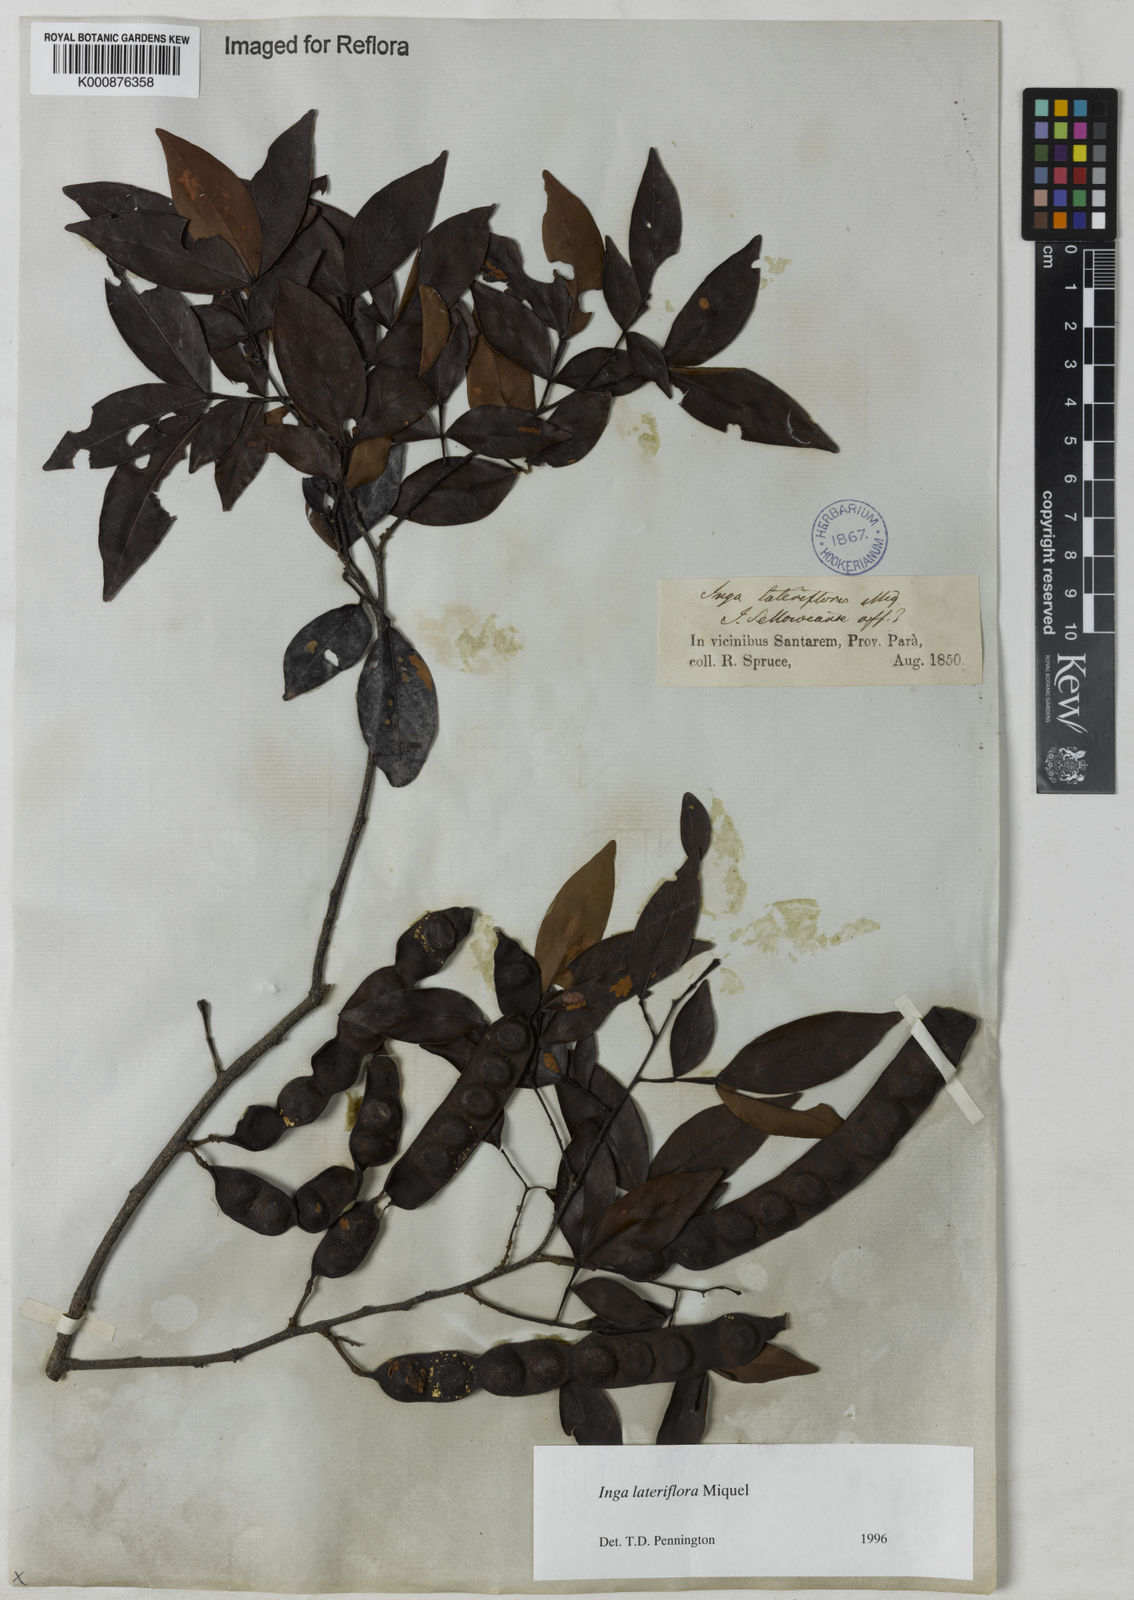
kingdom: Plantae
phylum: Tracheophyta
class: Magnoliopsida
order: Fabales
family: Fabaceae
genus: Inga
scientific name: Inga lateriflora
